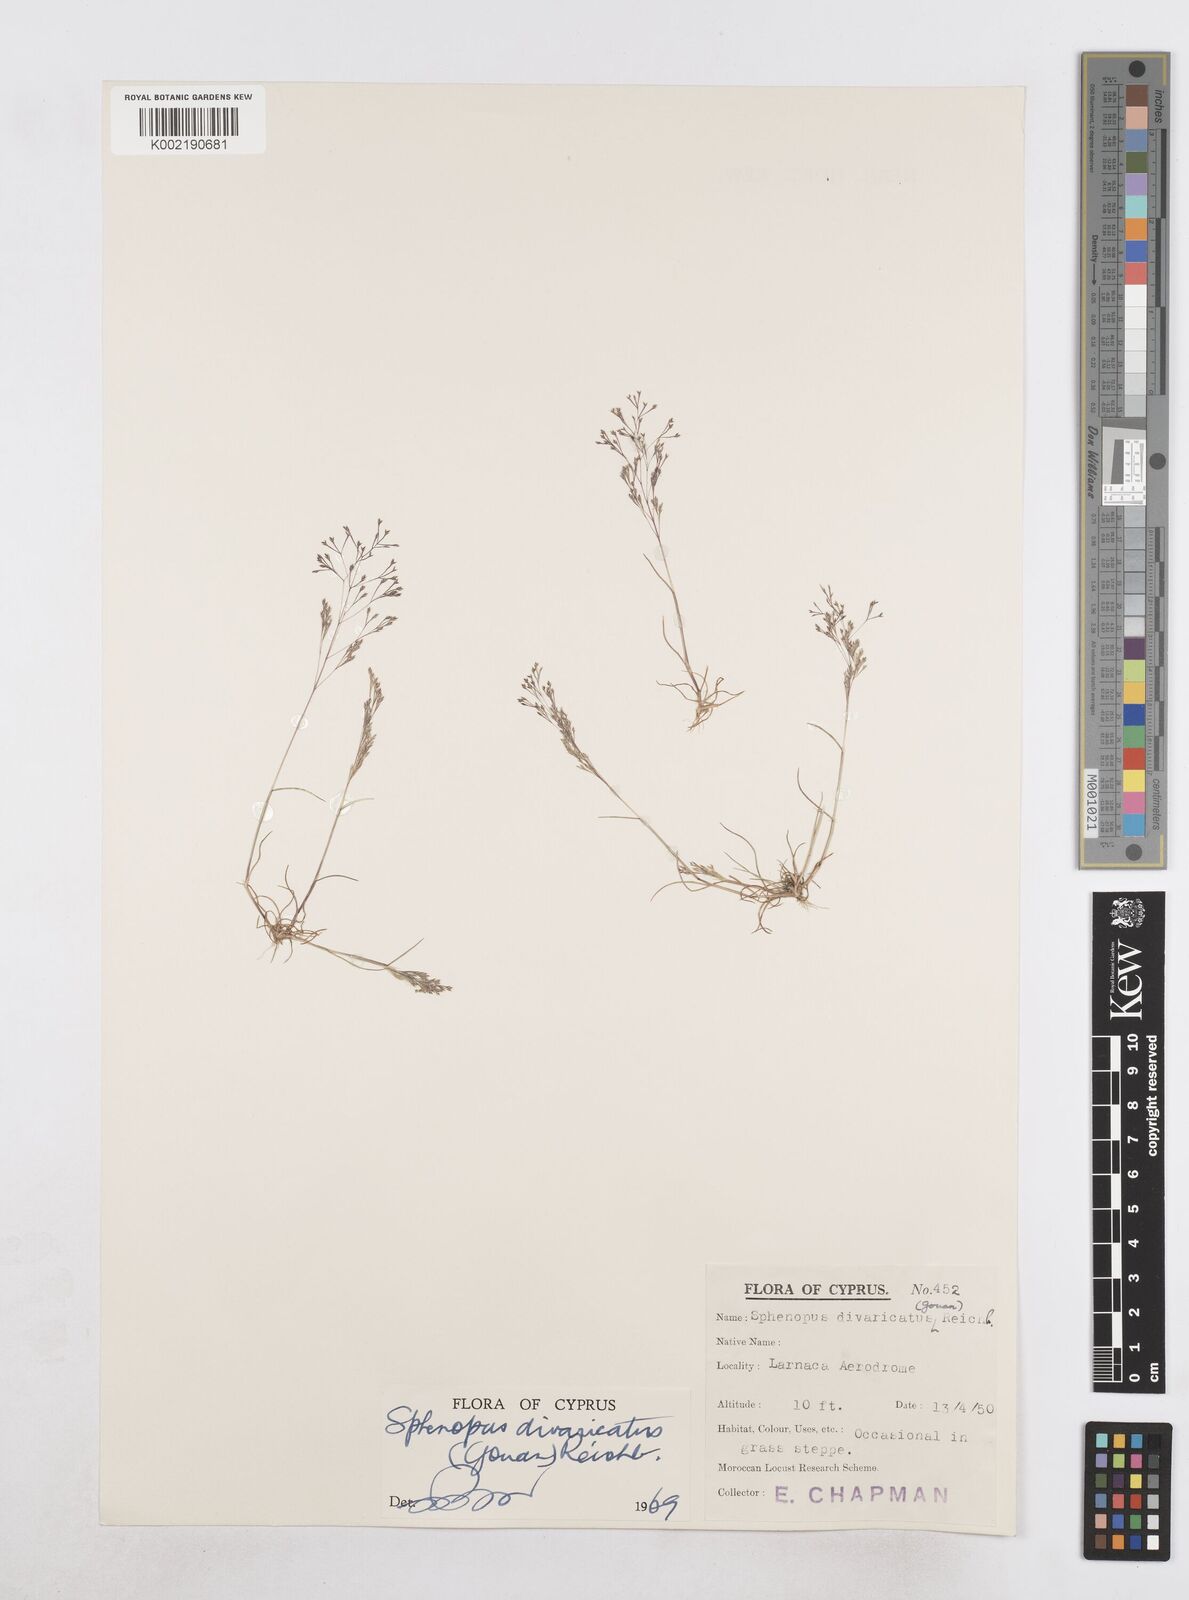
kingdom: Plantae
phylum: Tracheophyta
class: Liliopsida
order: Poales
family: Poaceae
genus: Sphenopus
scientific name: Sphenopus divaricatus
